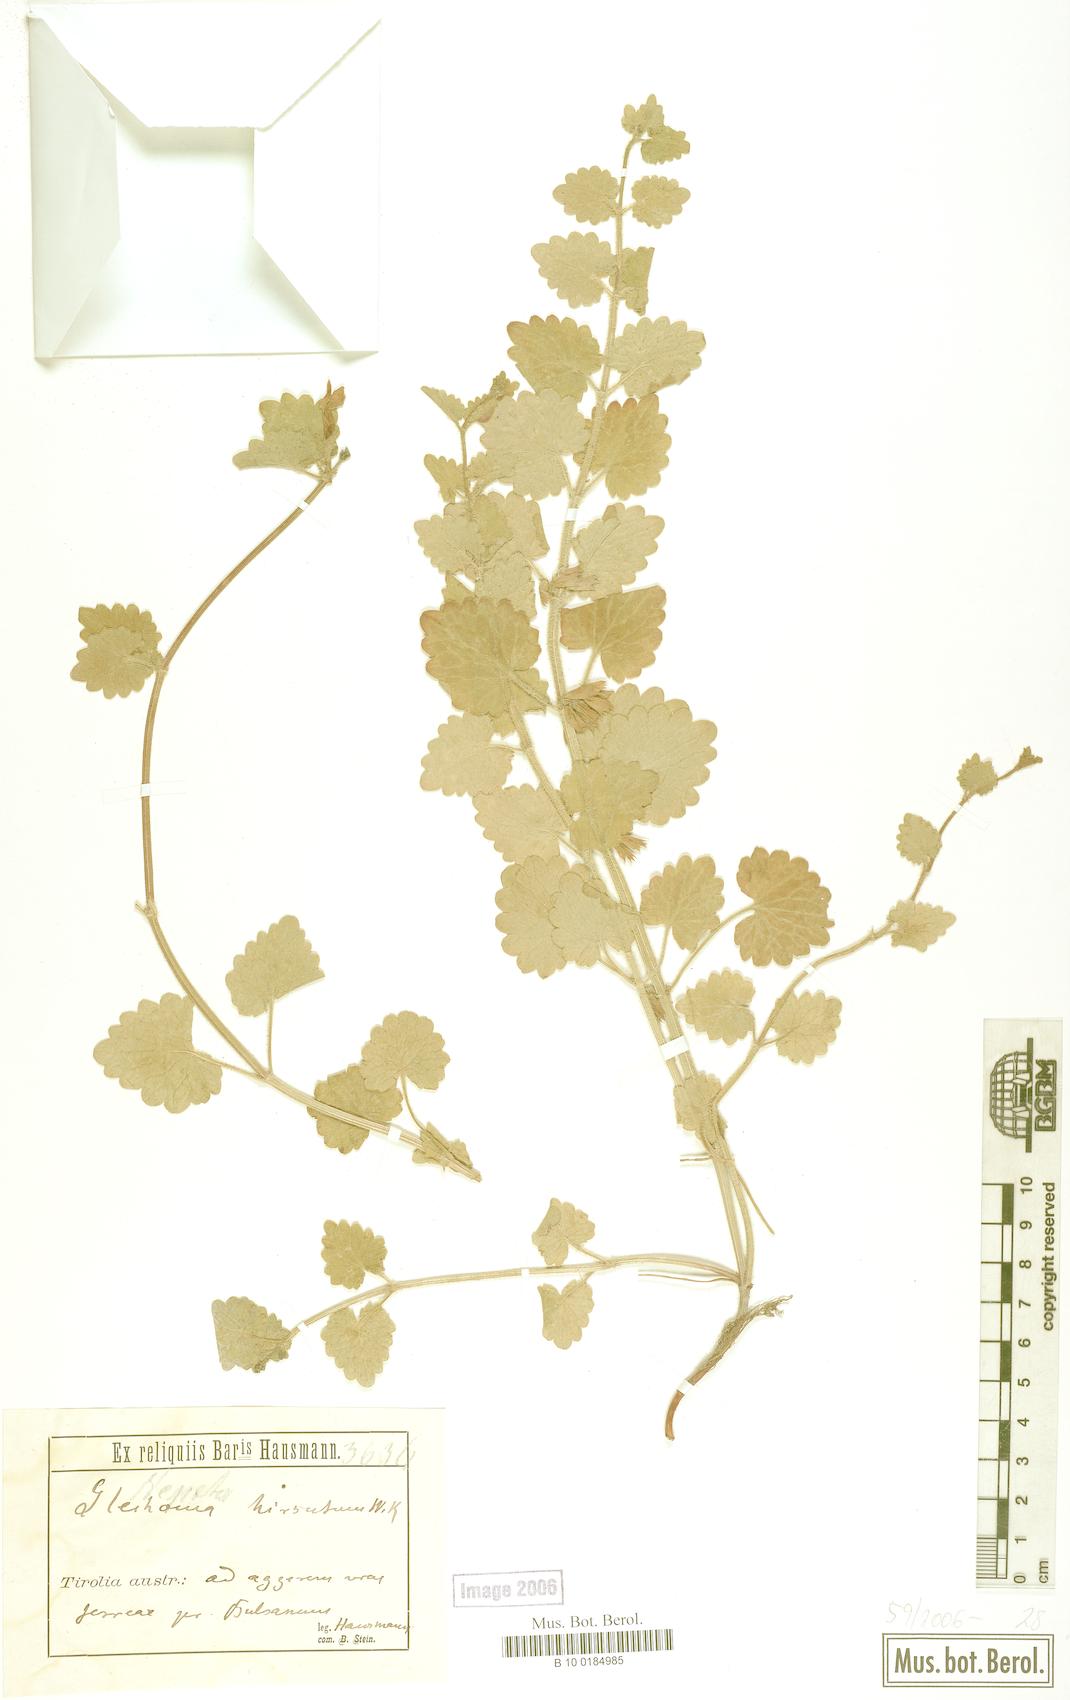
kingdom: Plantae
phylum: Tracheophyta
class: Magnoliopsida
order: Lamiales
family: Lamiaceae
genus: Glechoma
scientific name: Glechoma hirsuta
